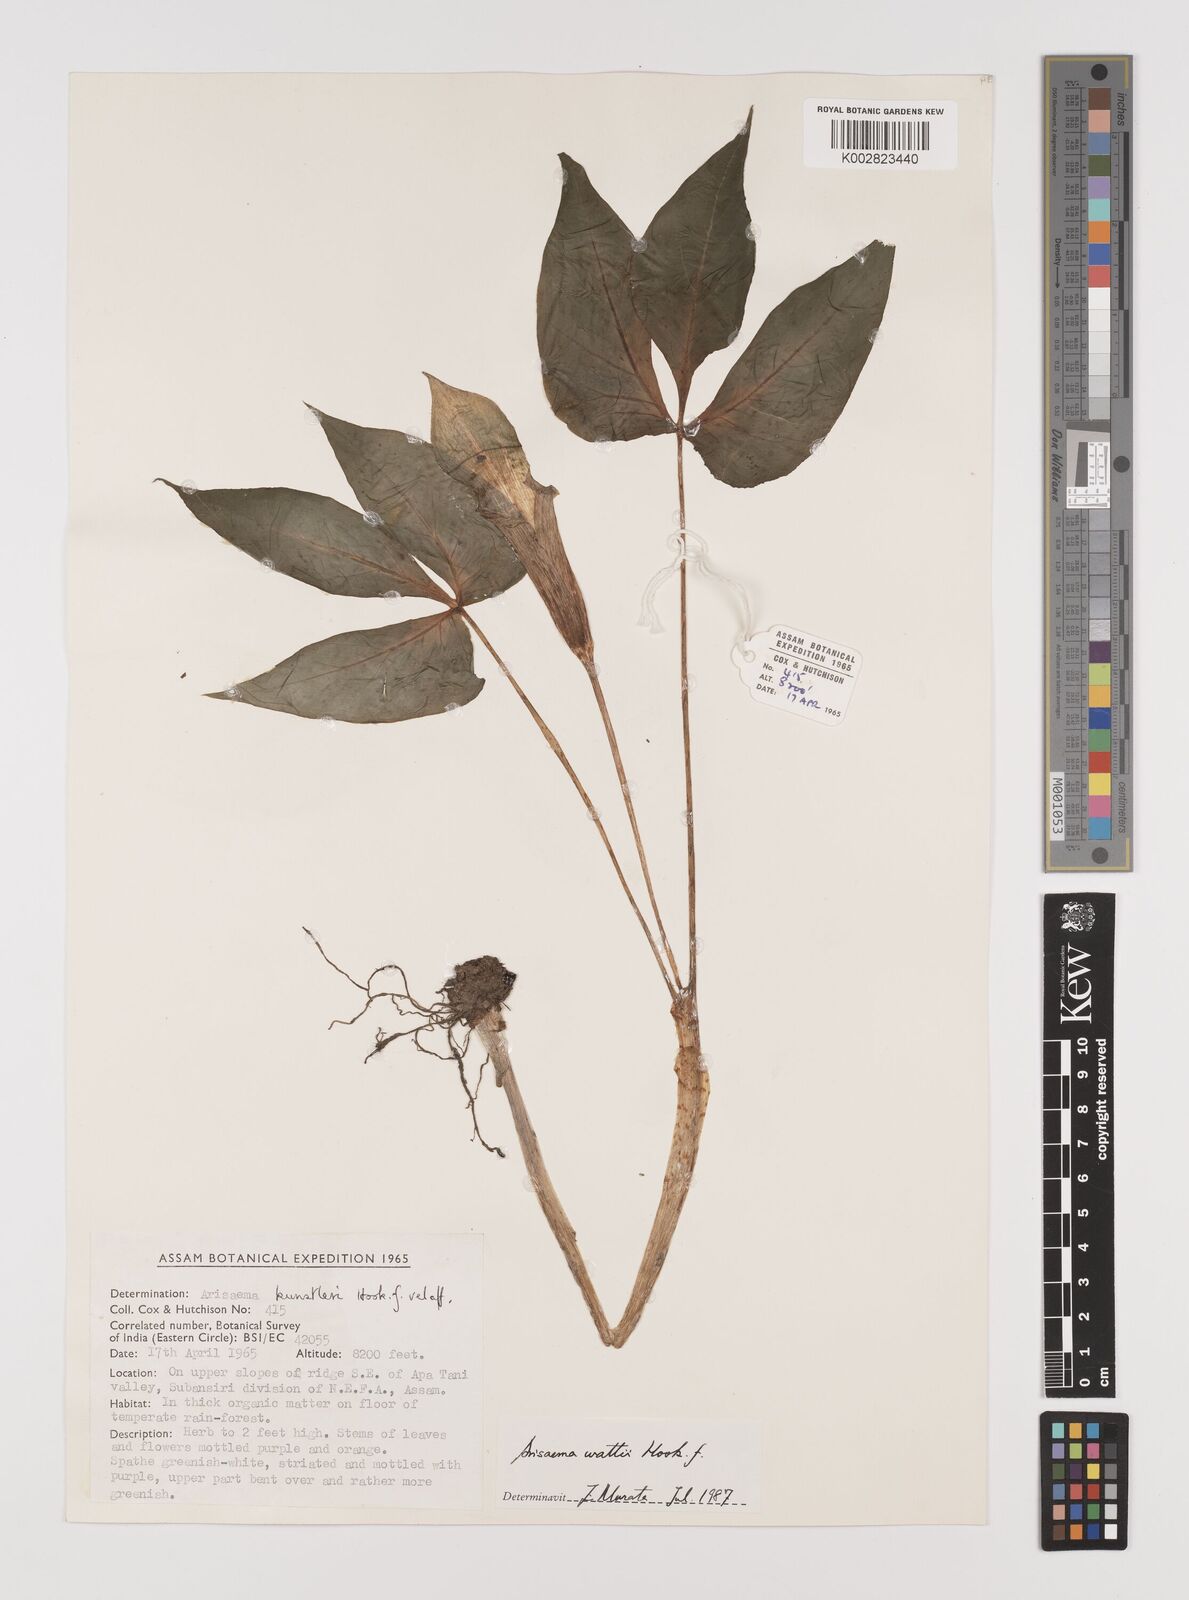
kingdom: Plantae
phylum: Tracheophyta
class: Liliopsida
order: Alismatales
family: Araceae
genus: Arisaema
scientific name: Arisaema wattii
